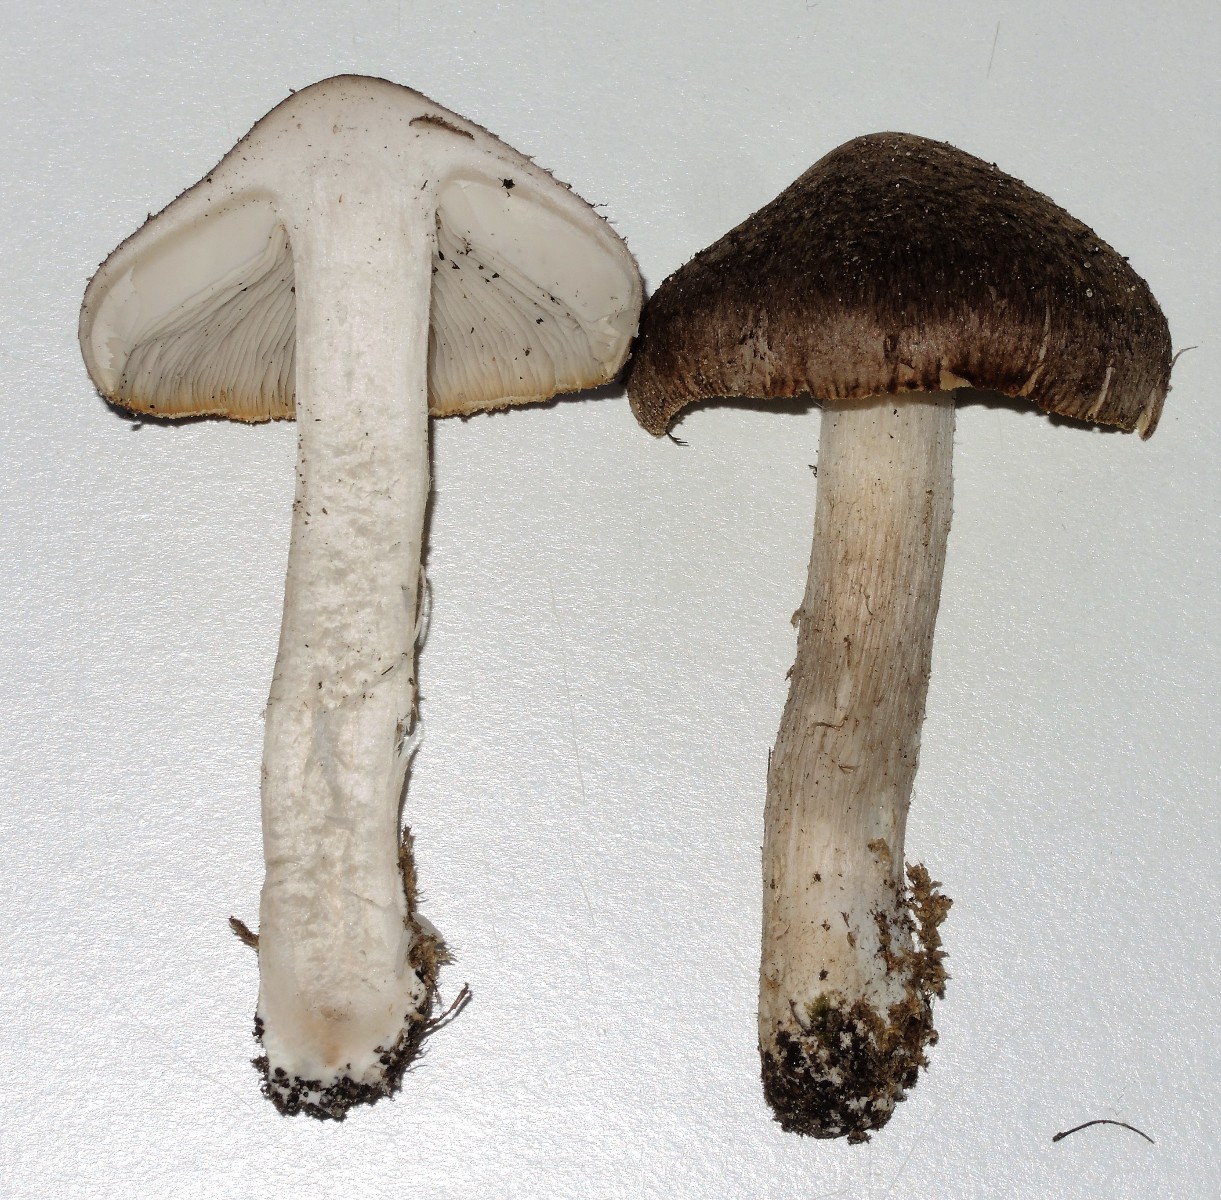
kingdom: Fungi
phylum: Basidiomycota
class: Agaricomycetes
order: Agaricales
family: Tricholomataceae
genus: Tricholoma
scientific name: Tricholoma argyraceum
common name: slør-ridderhat
